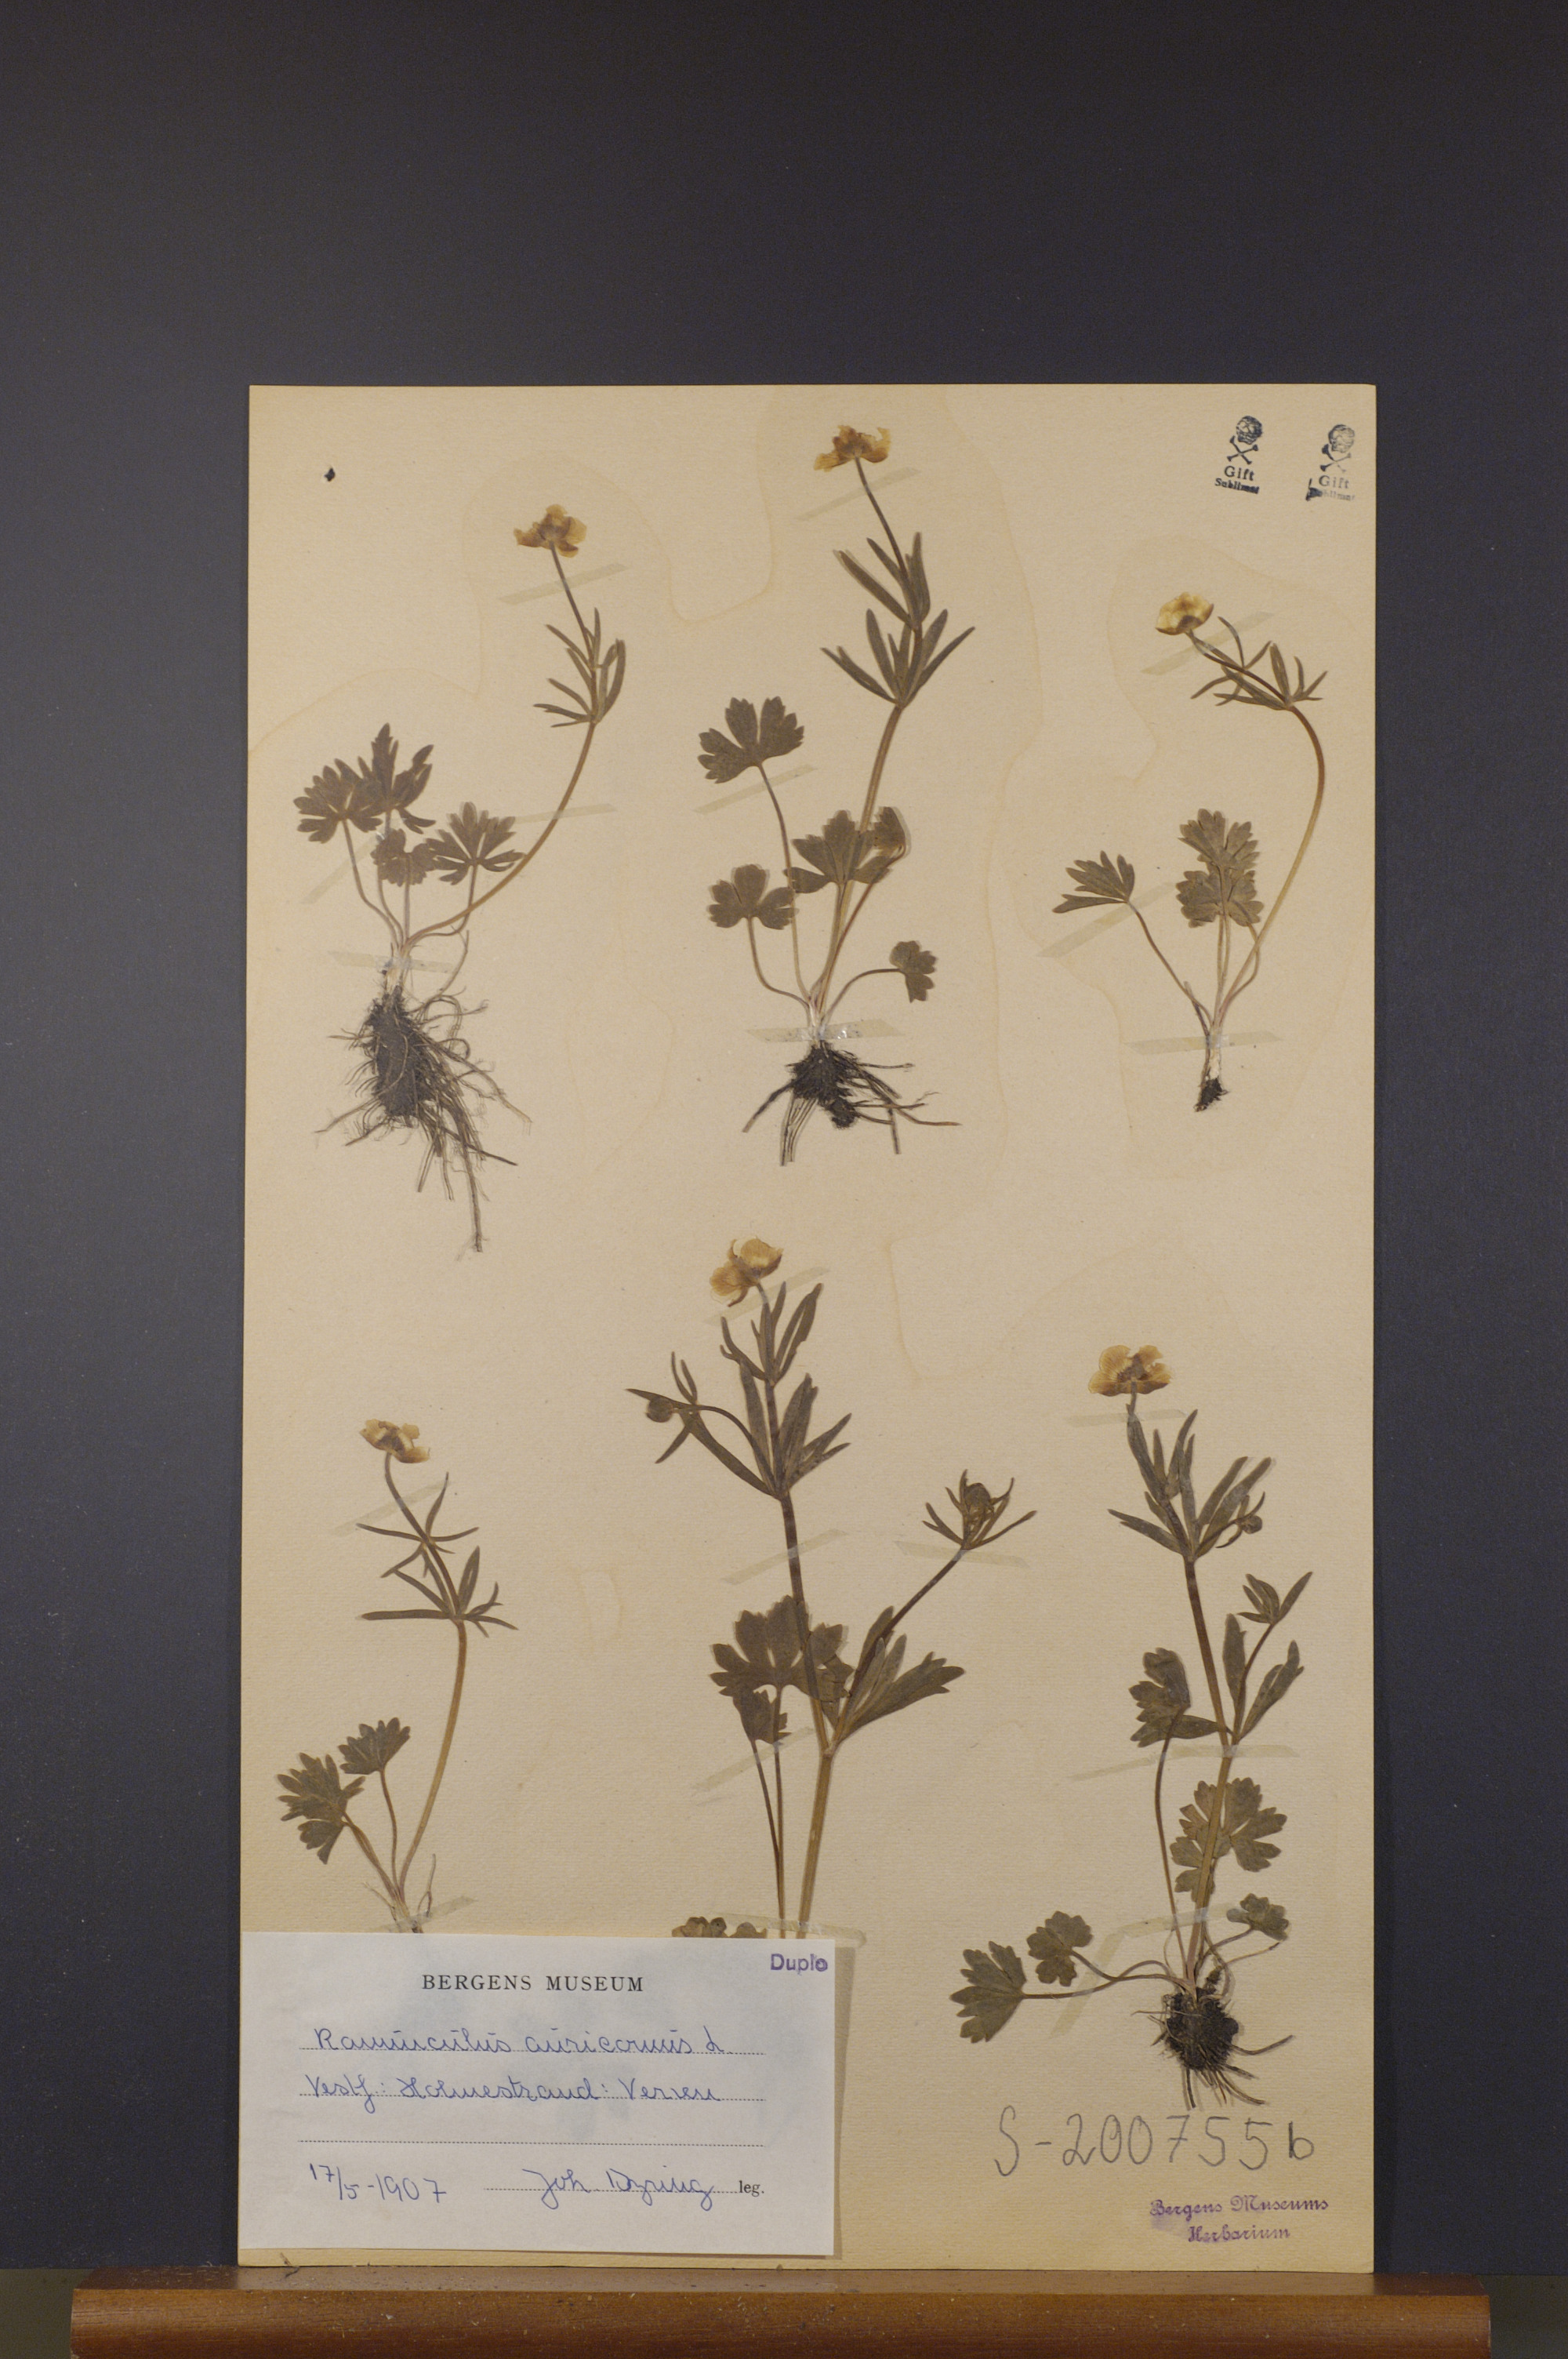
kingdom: Plantae
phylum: Tracheophyta
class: Magnoliopsida
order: Ranunculales
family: Ranunculaceae
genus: Ranunculus
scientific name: Ranunculus auricomus
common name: Goldilocks buttercup
